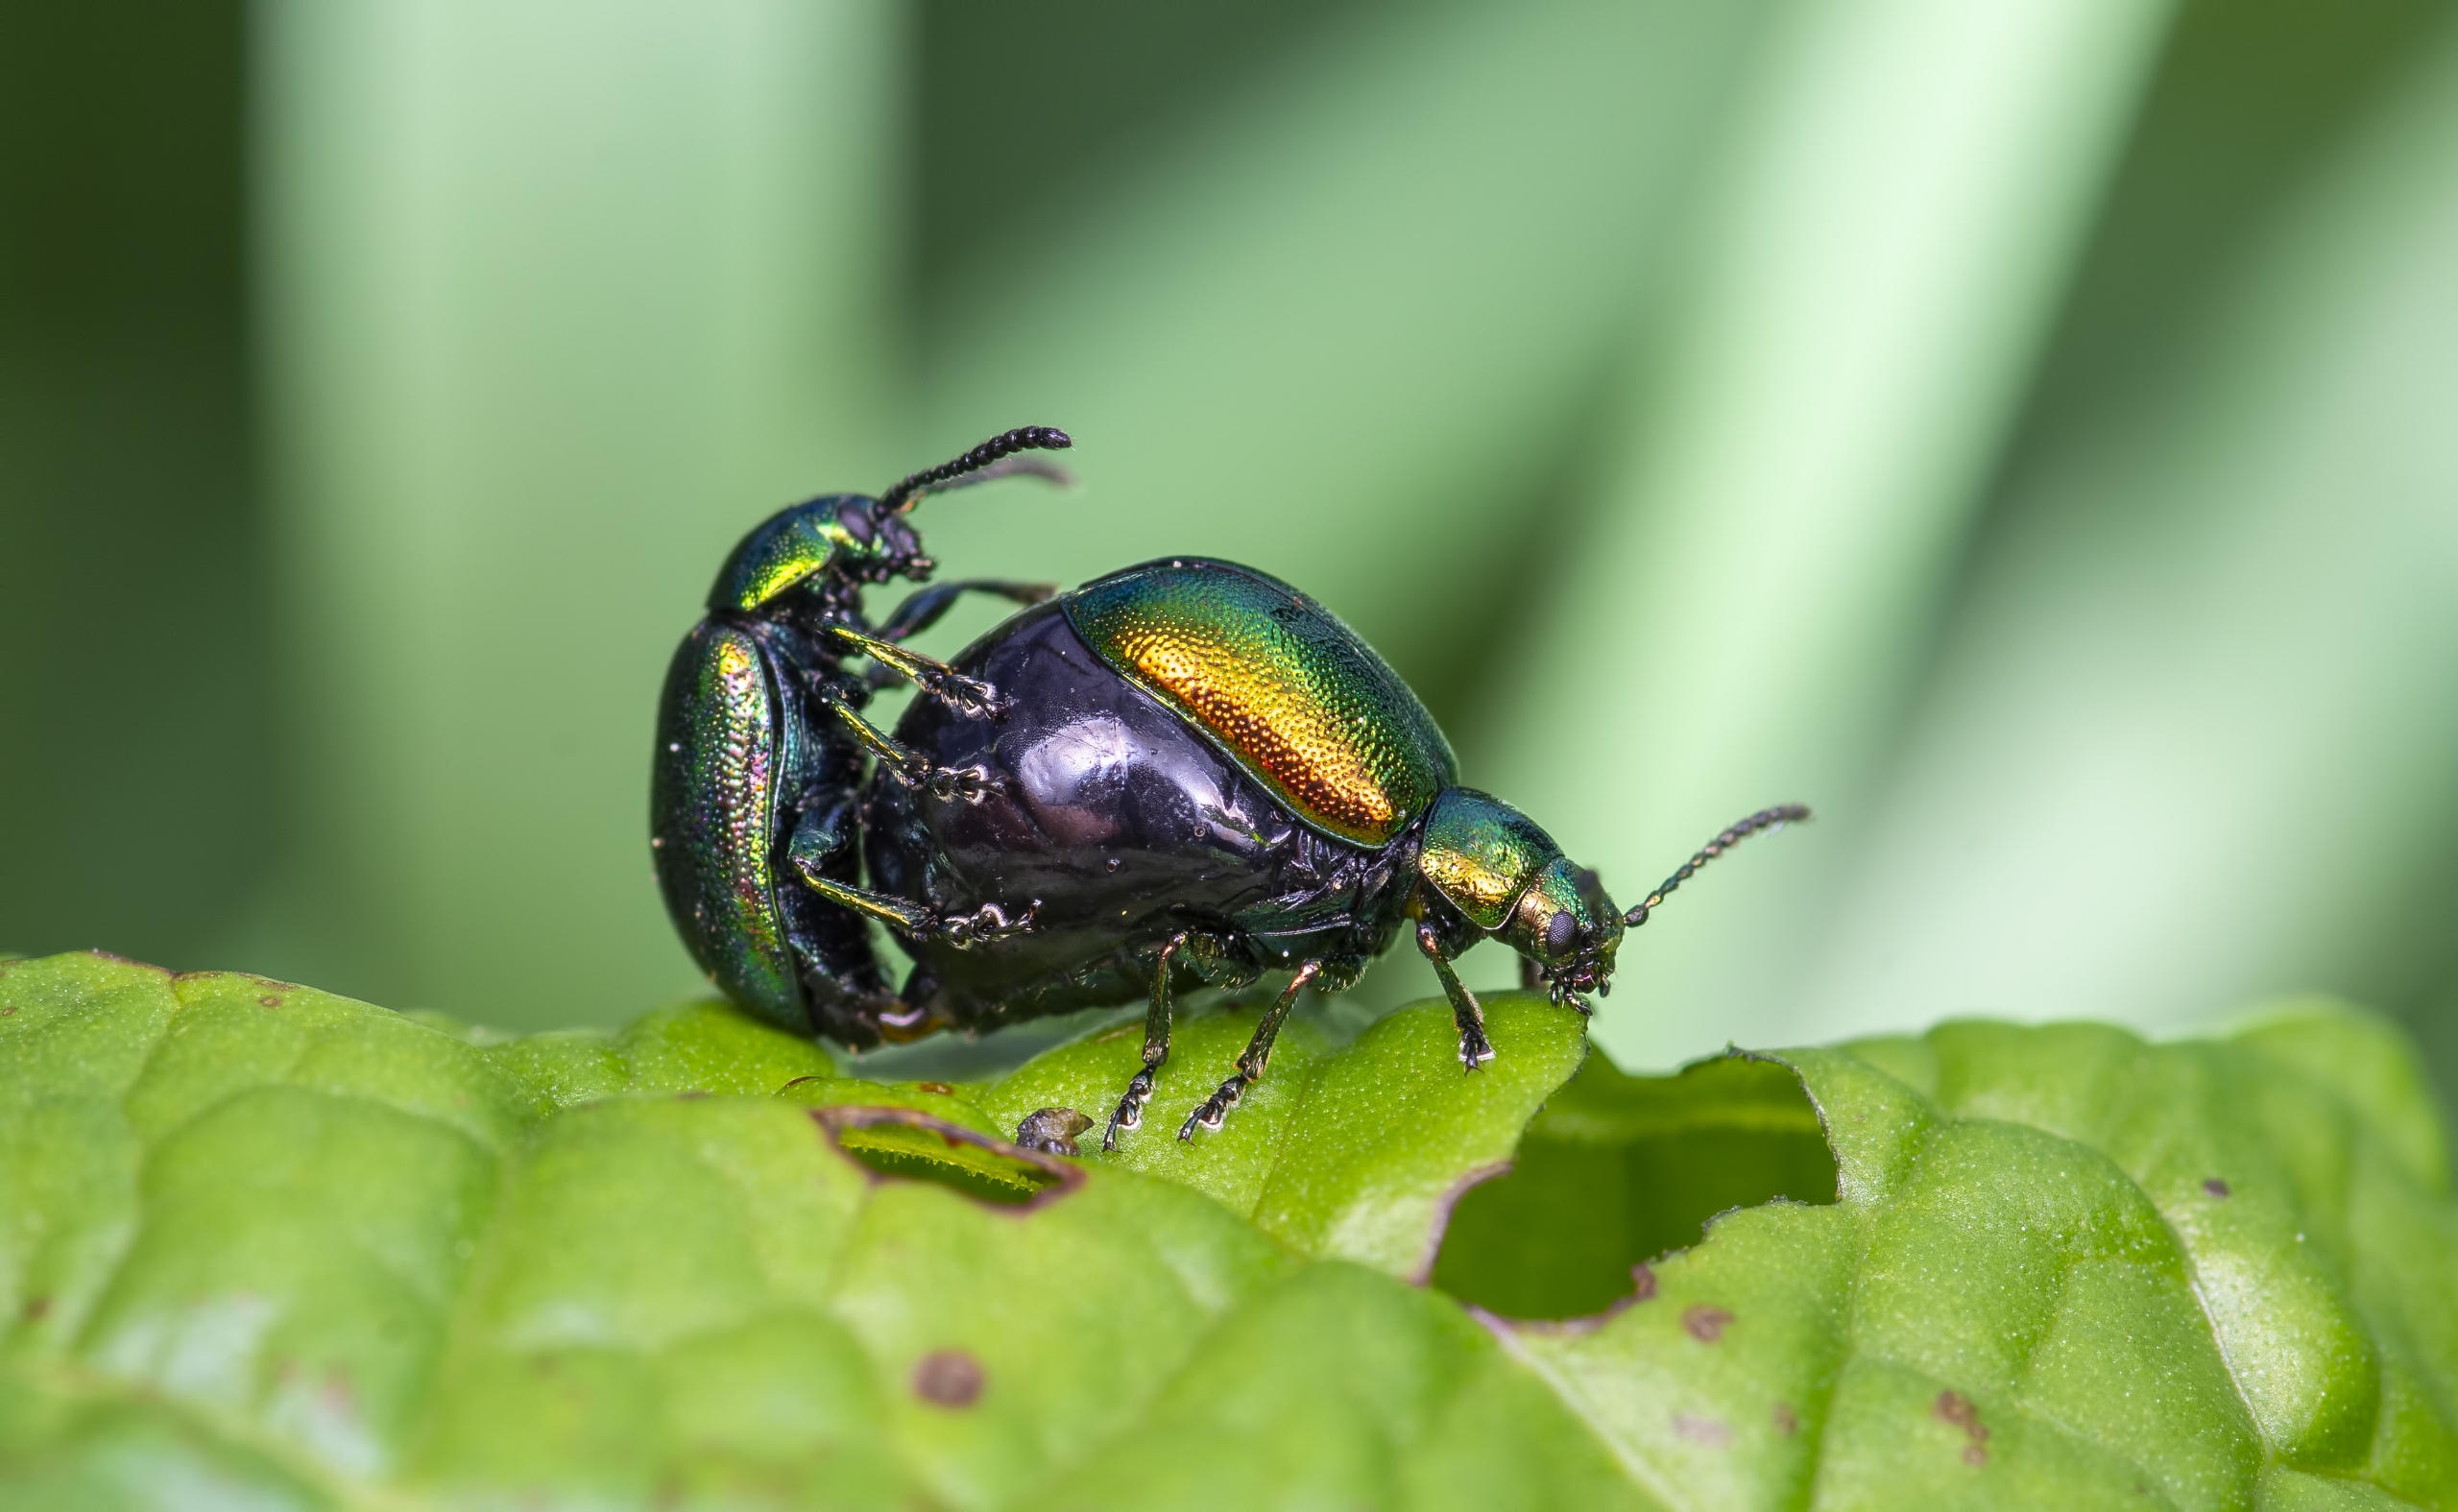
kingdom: Animalia
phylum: Arthropoda
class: Insecta
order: Coleoptera
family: Chrysomelidae
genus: Gastrophysa
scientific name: Gastrophysa viridula
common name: Skræppebladbille
